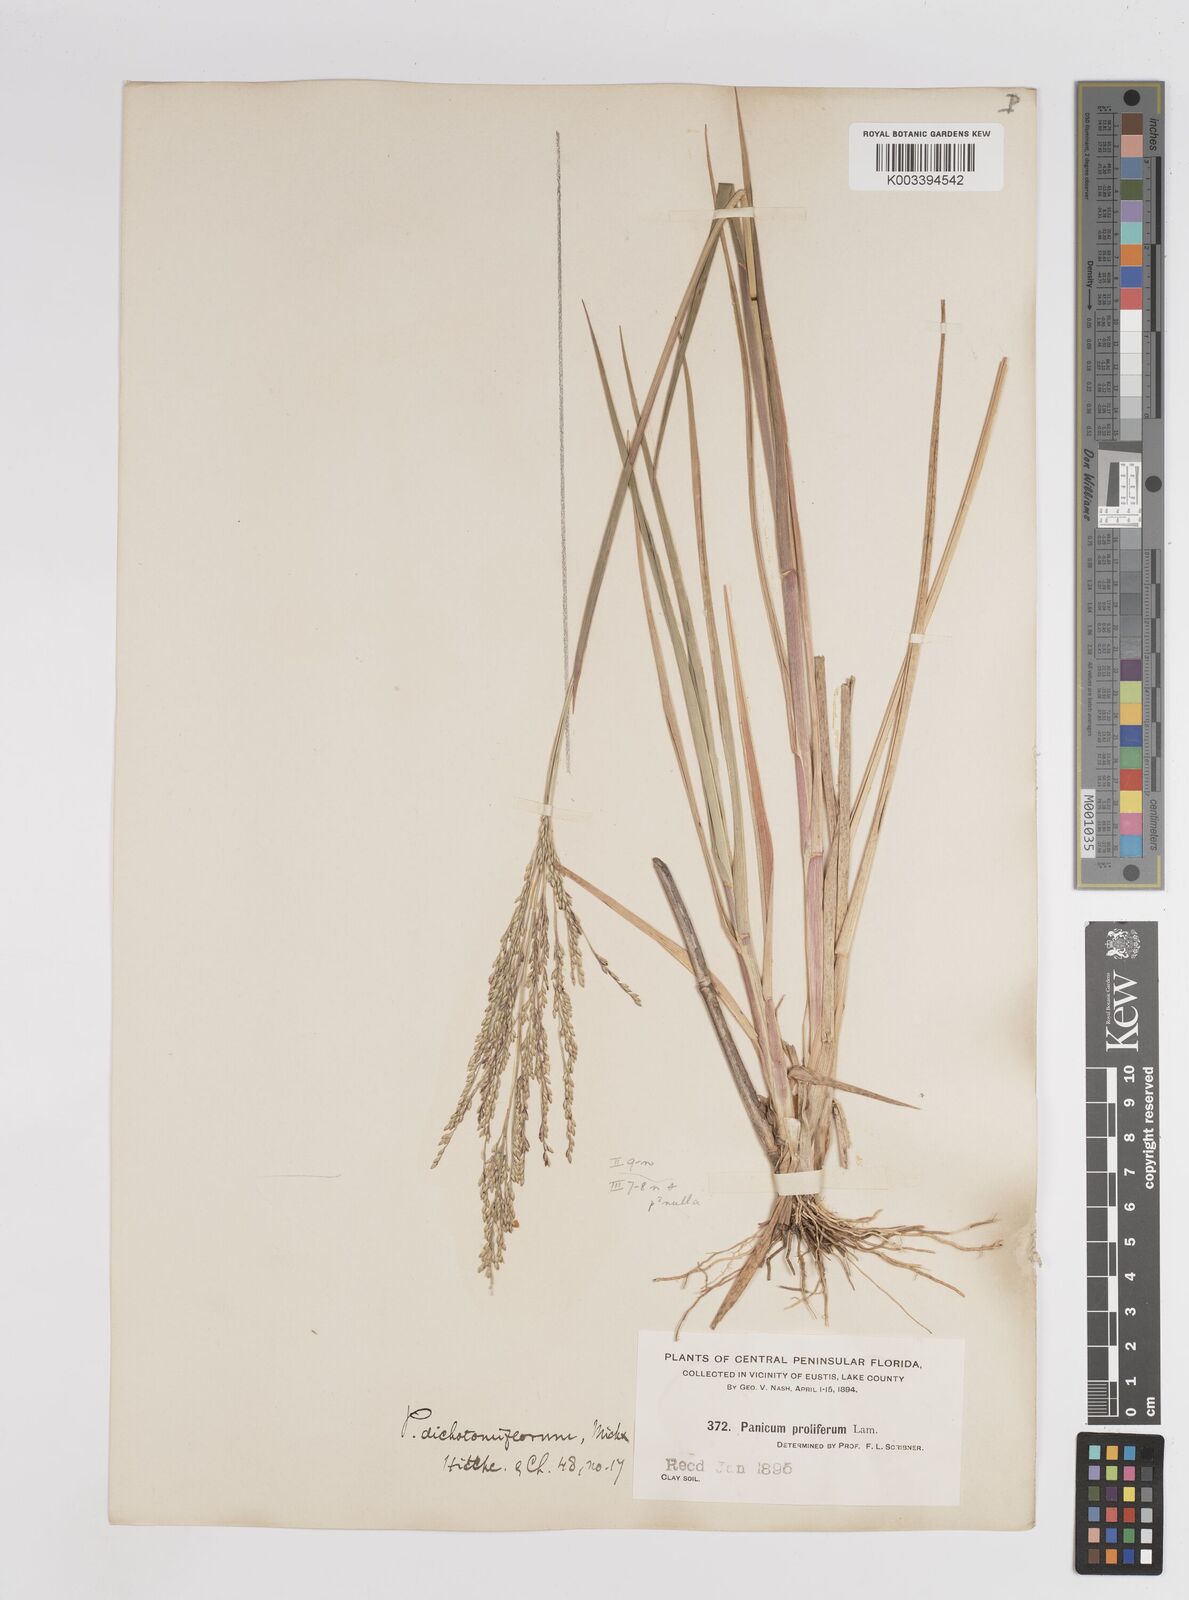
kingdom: Plantae
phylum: Tracheophyta
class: Liliopsida
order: Poales
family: Poaceae
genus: Panicum
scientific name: Panicum bartowense
